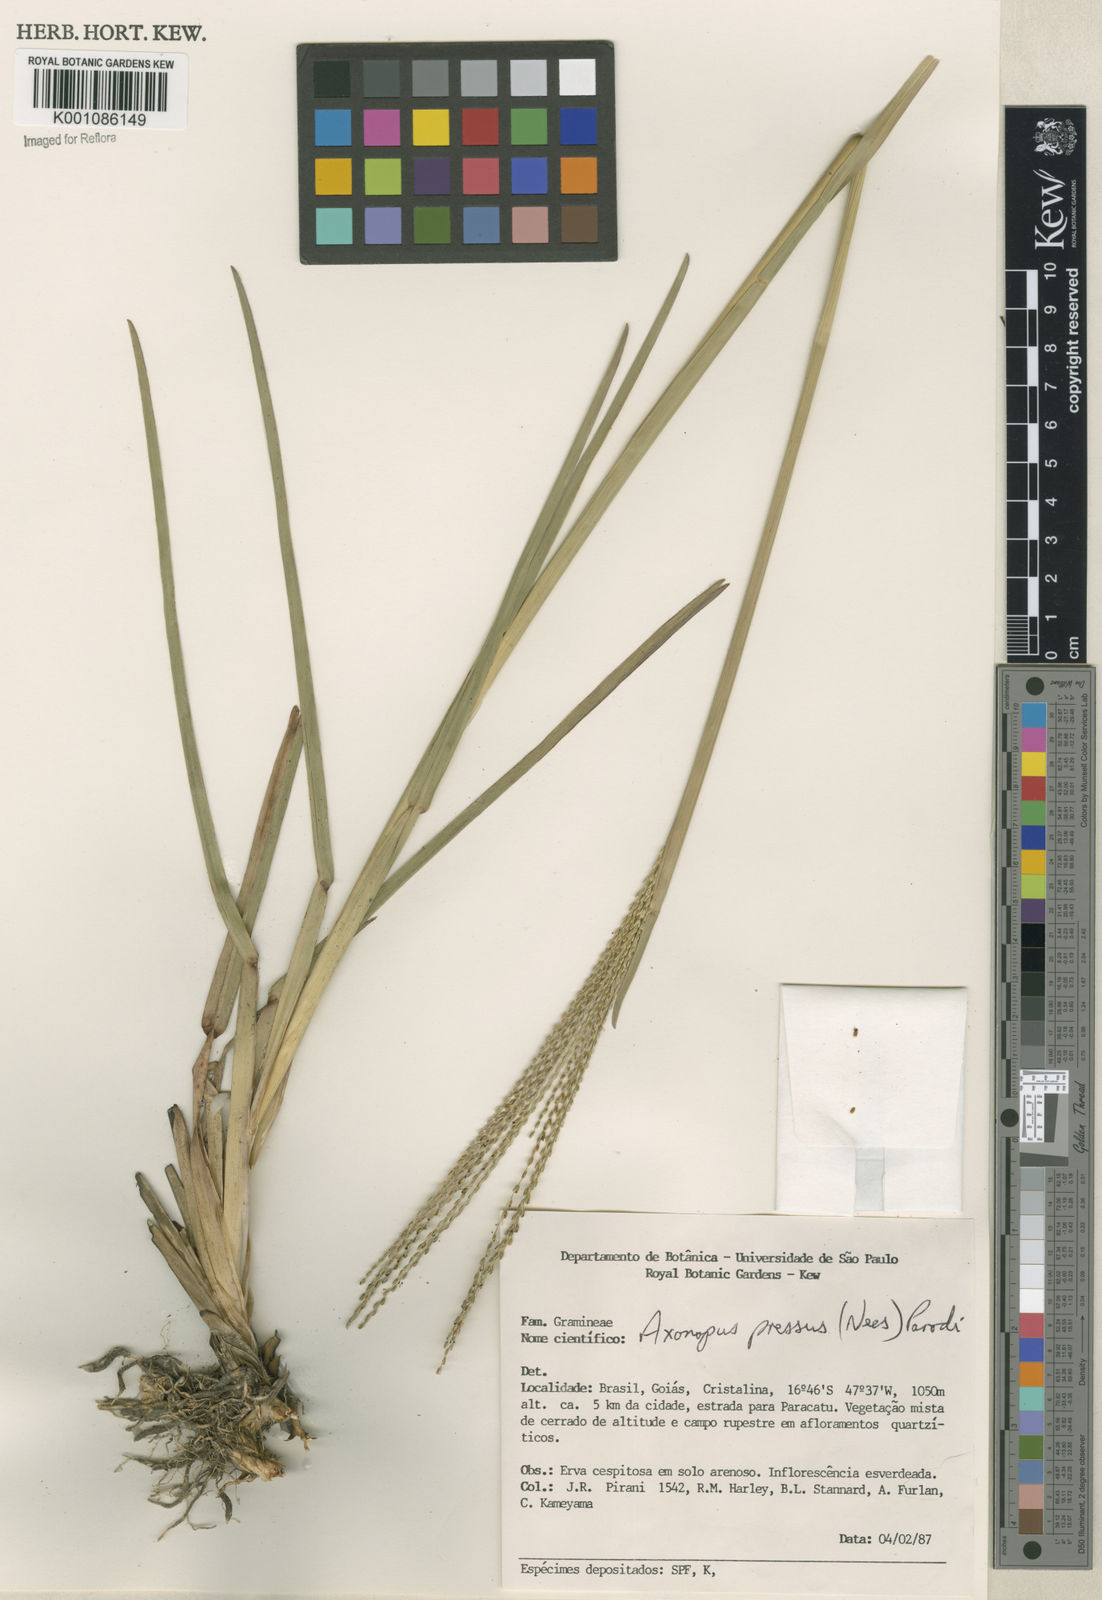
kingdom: Plantae
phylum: Tracheophyta
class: Liliopsida
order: Poales
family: Poaceae
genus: Axonopus
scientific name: Axonopus pressus
